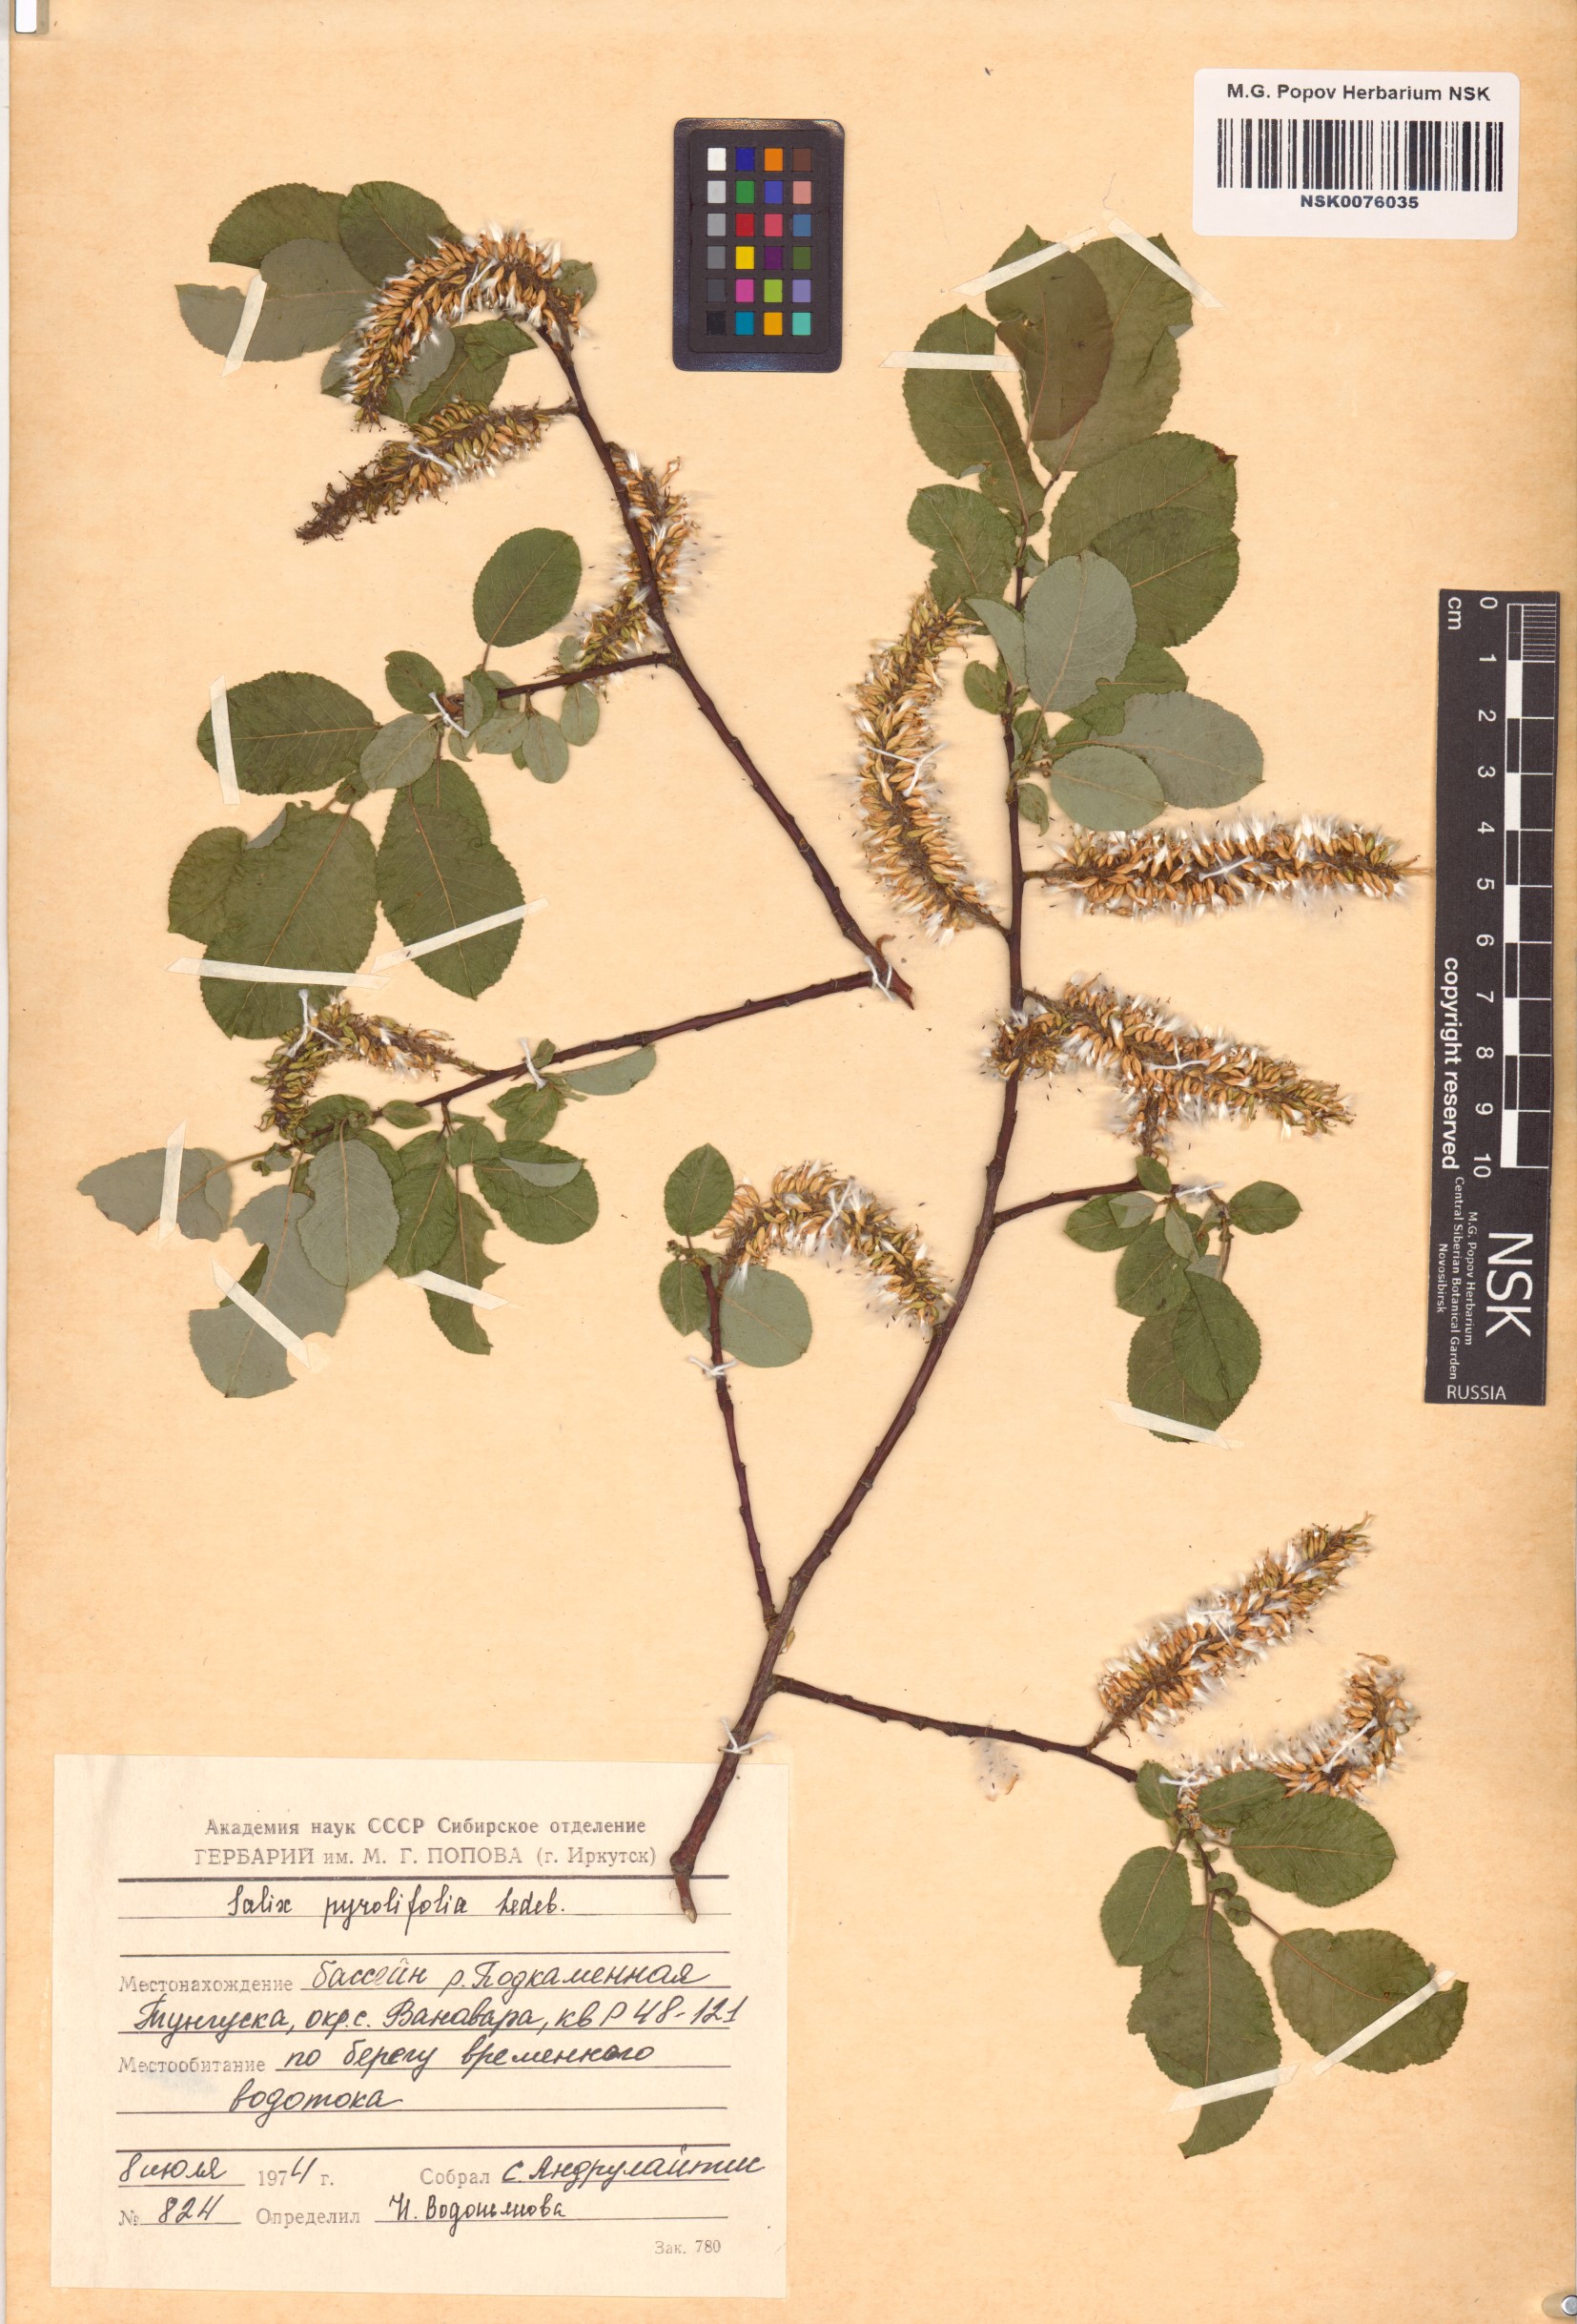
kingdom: Plantae
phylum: Tracheophyta
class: Magnoliopsida
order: Malpighiales
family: Salicaceae
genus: Salix
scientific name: Salix pyrolifolia
